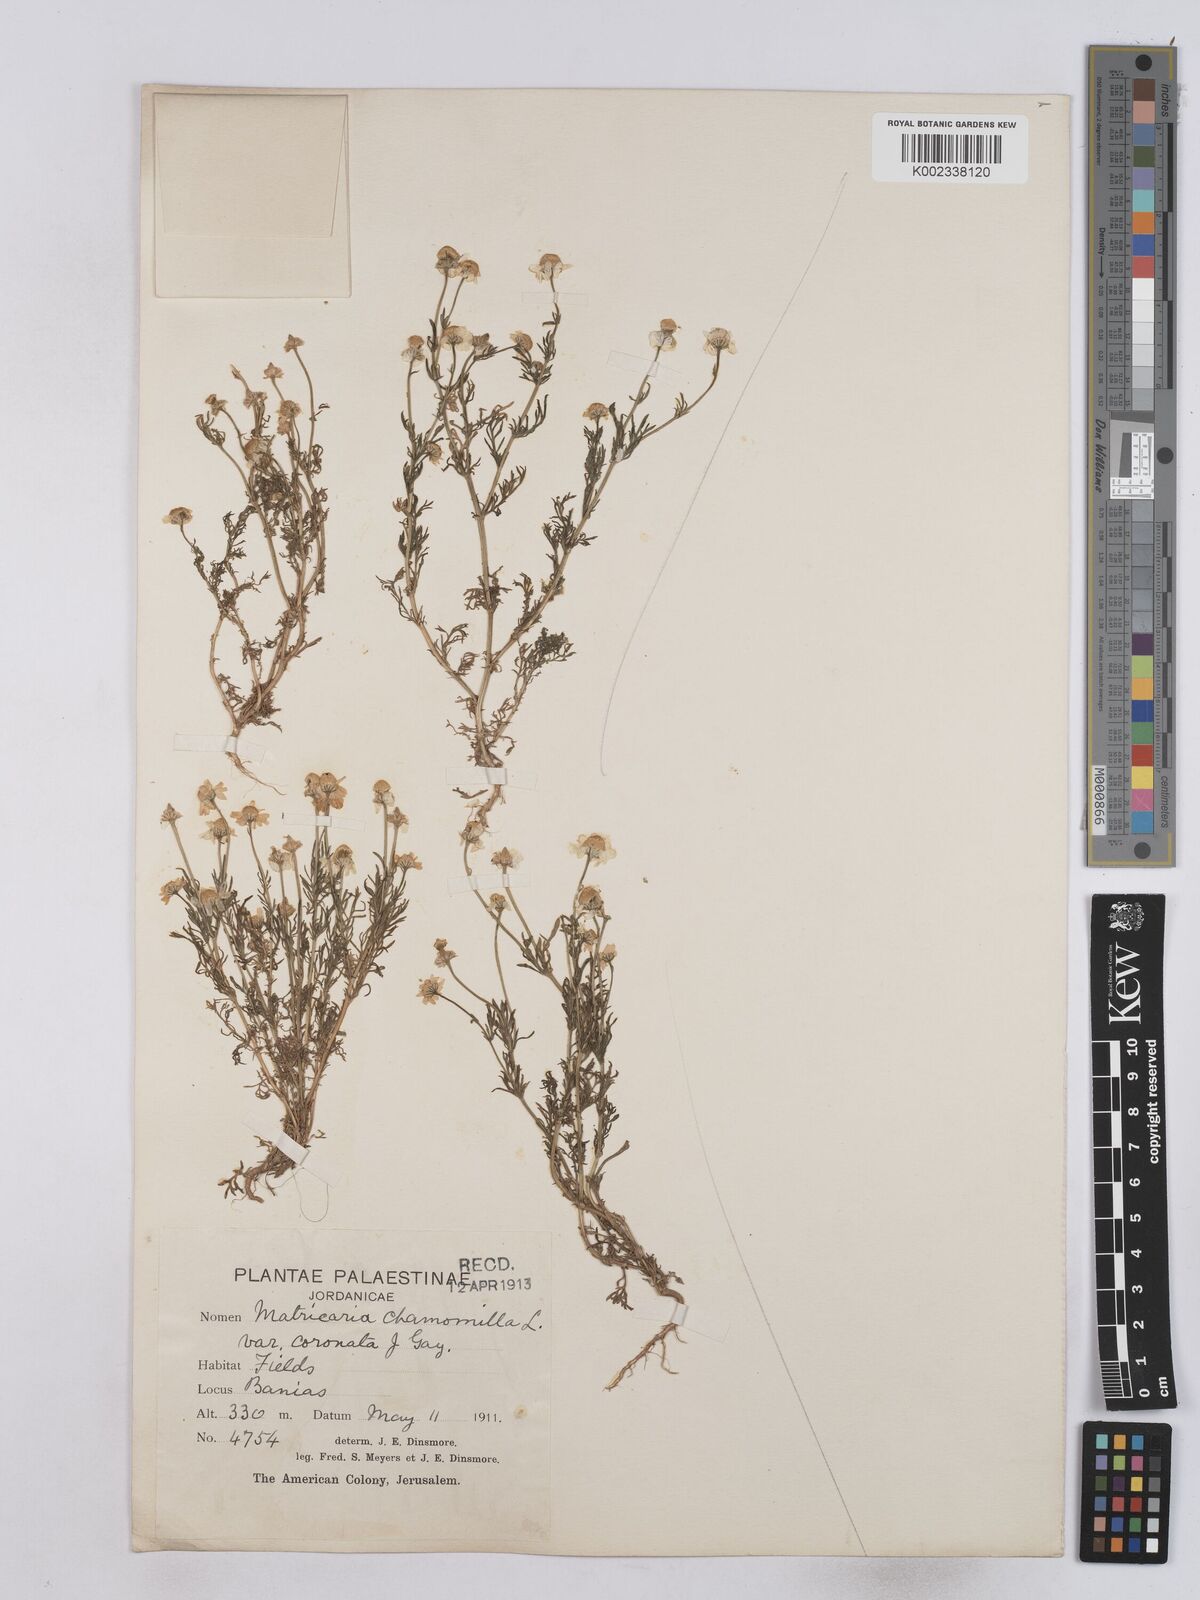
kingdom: Plantae
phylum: Tracheophyta
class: Magnoliopsida
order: Asterales
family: Asteraceae
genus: Matricaria
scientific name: Matricaria chamomilla
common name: Scented mayweed
